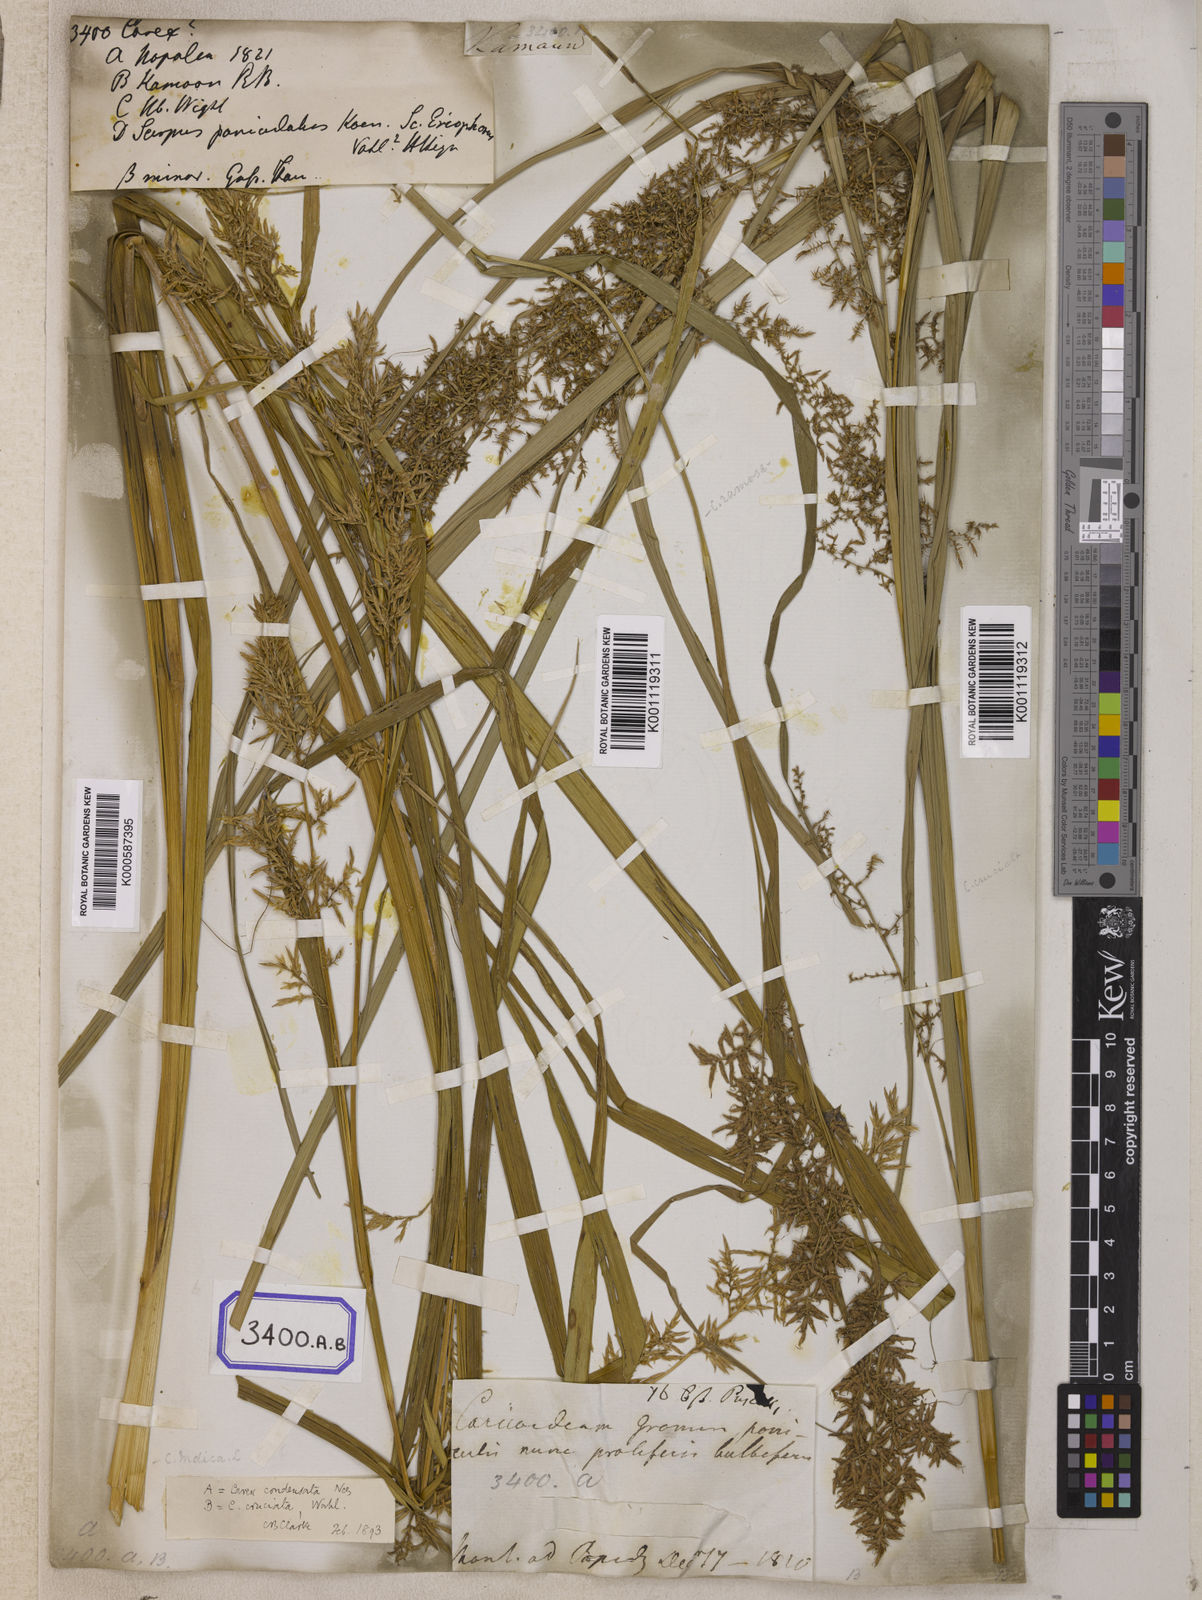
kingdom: Plantae
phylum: Tracheophyta
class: Liliopsida
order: Poales
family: Cyperaceae
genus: Carex
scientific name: Carex
